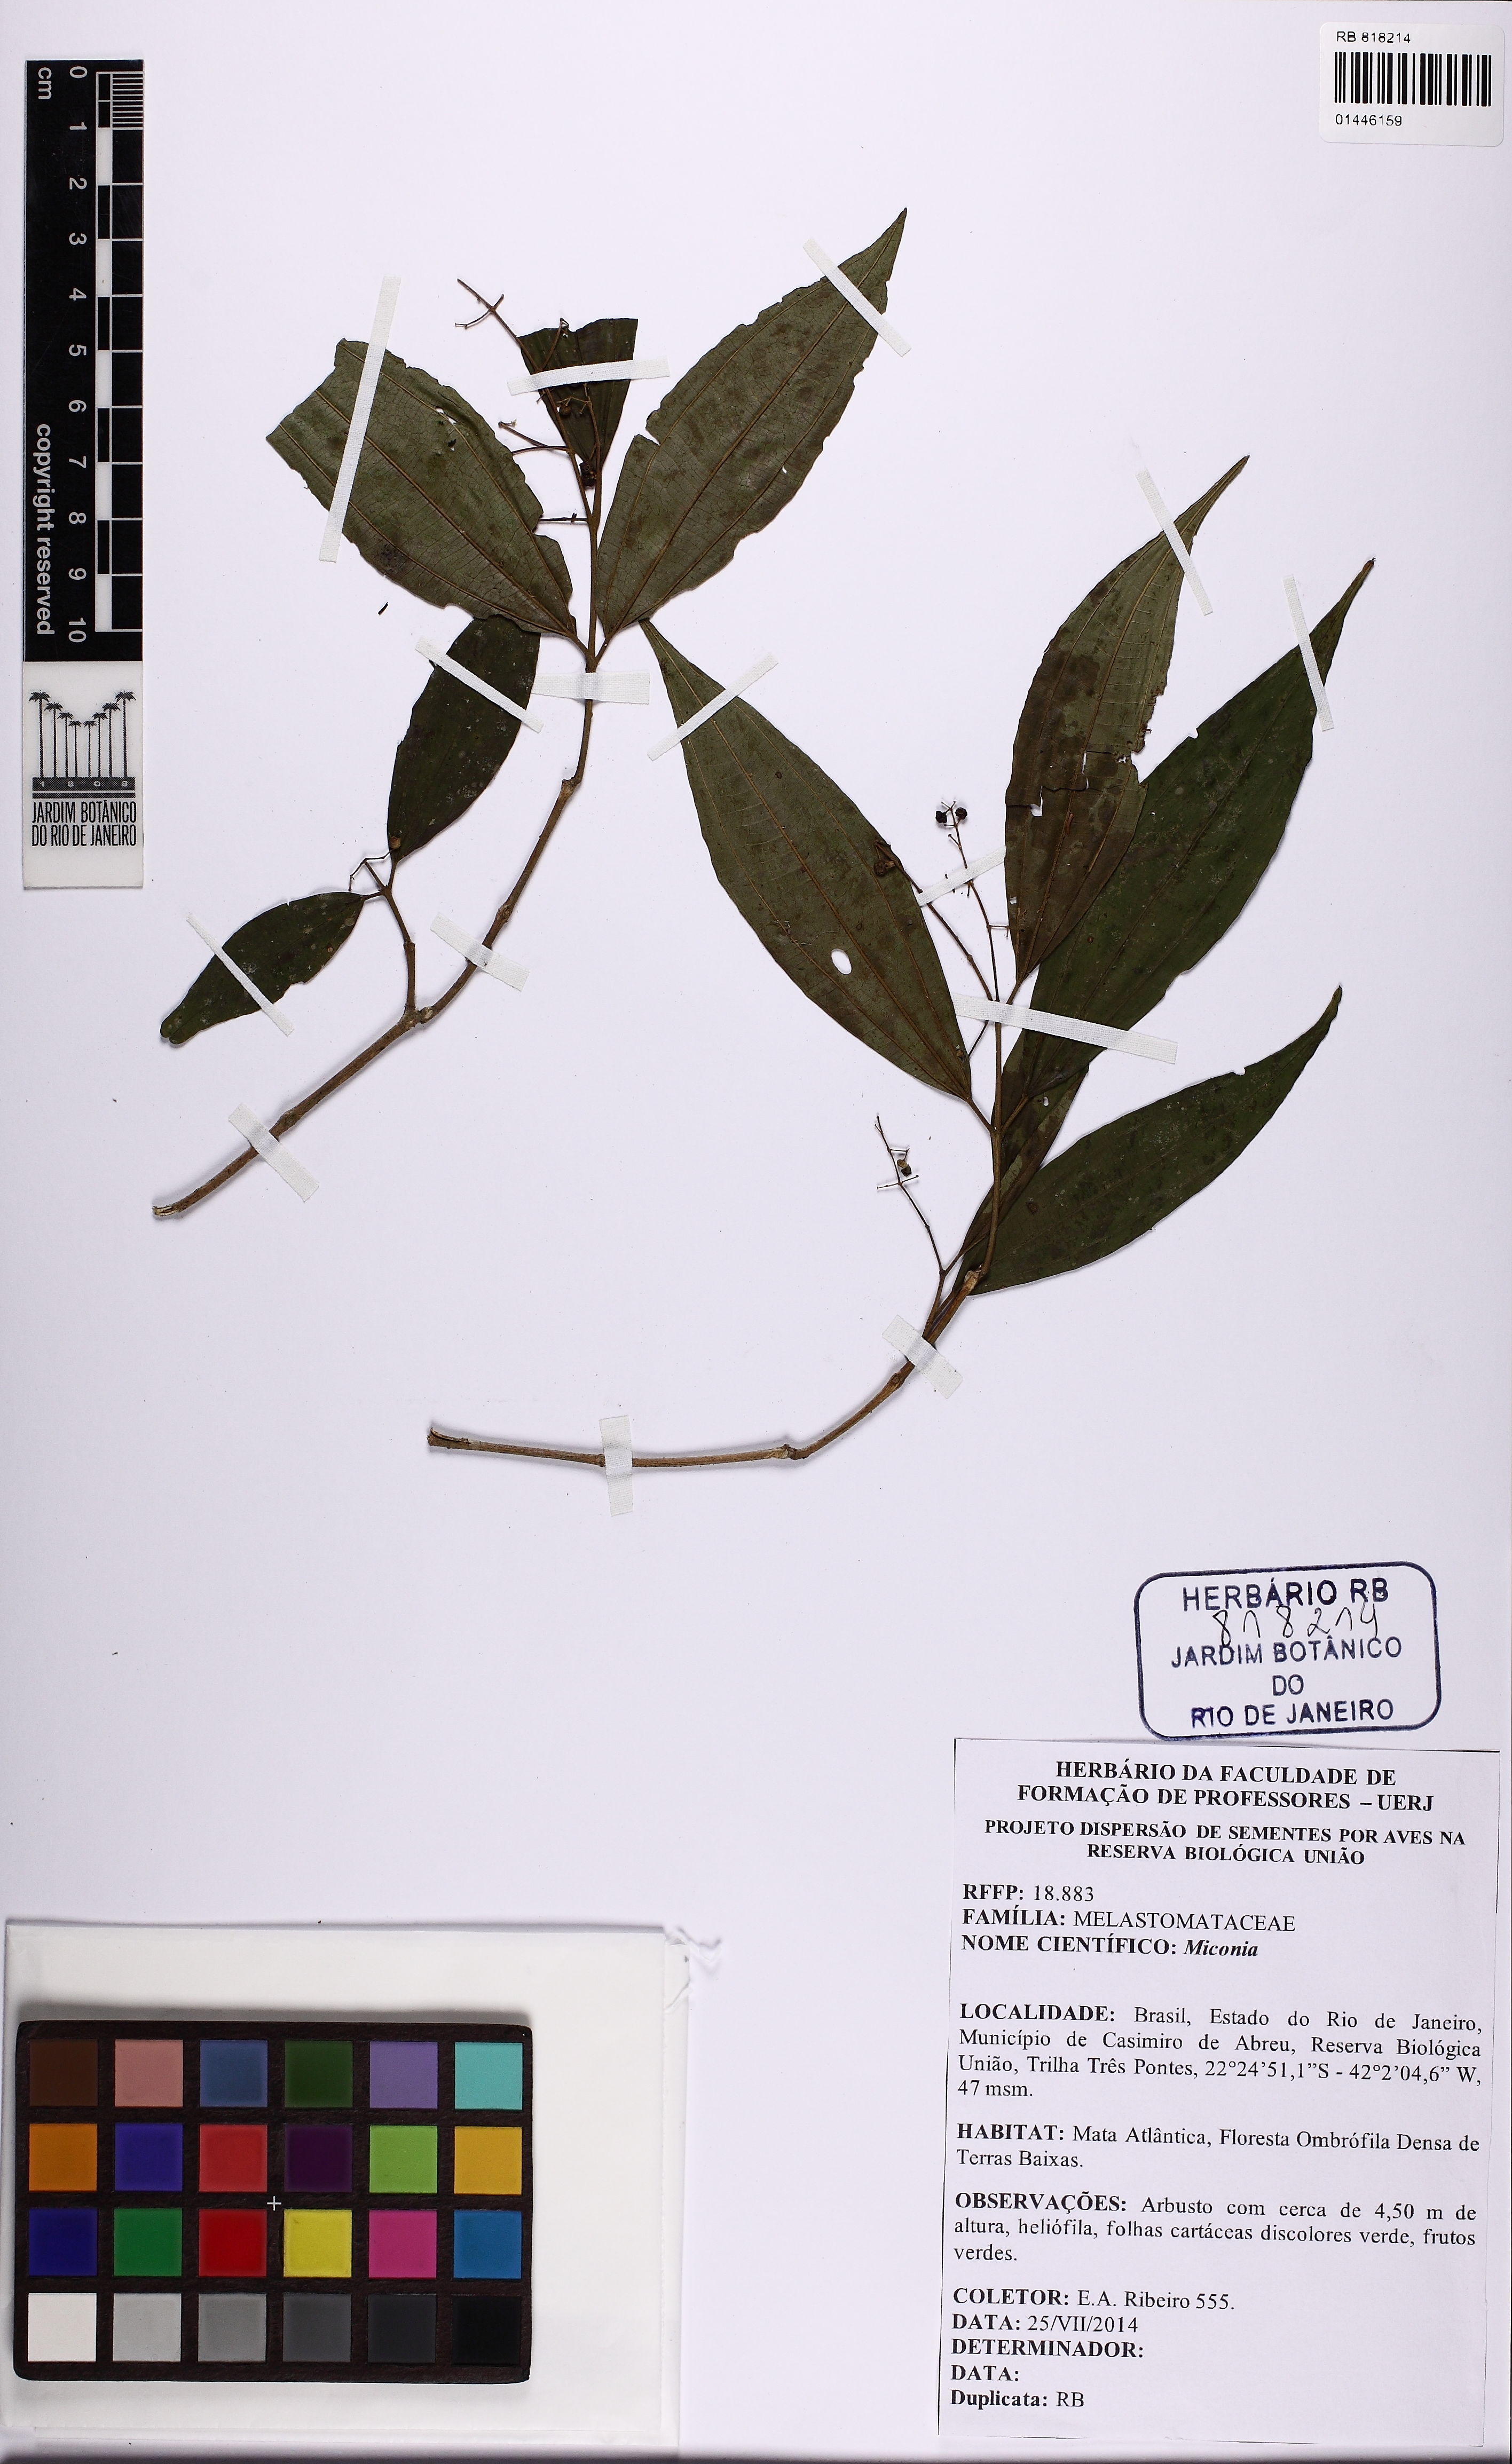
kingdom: Plantae
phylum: Tracheophyta
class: Magnoliopsida
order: Myrtales
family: Melastomataceae
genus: Miconia
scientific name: Miconia
